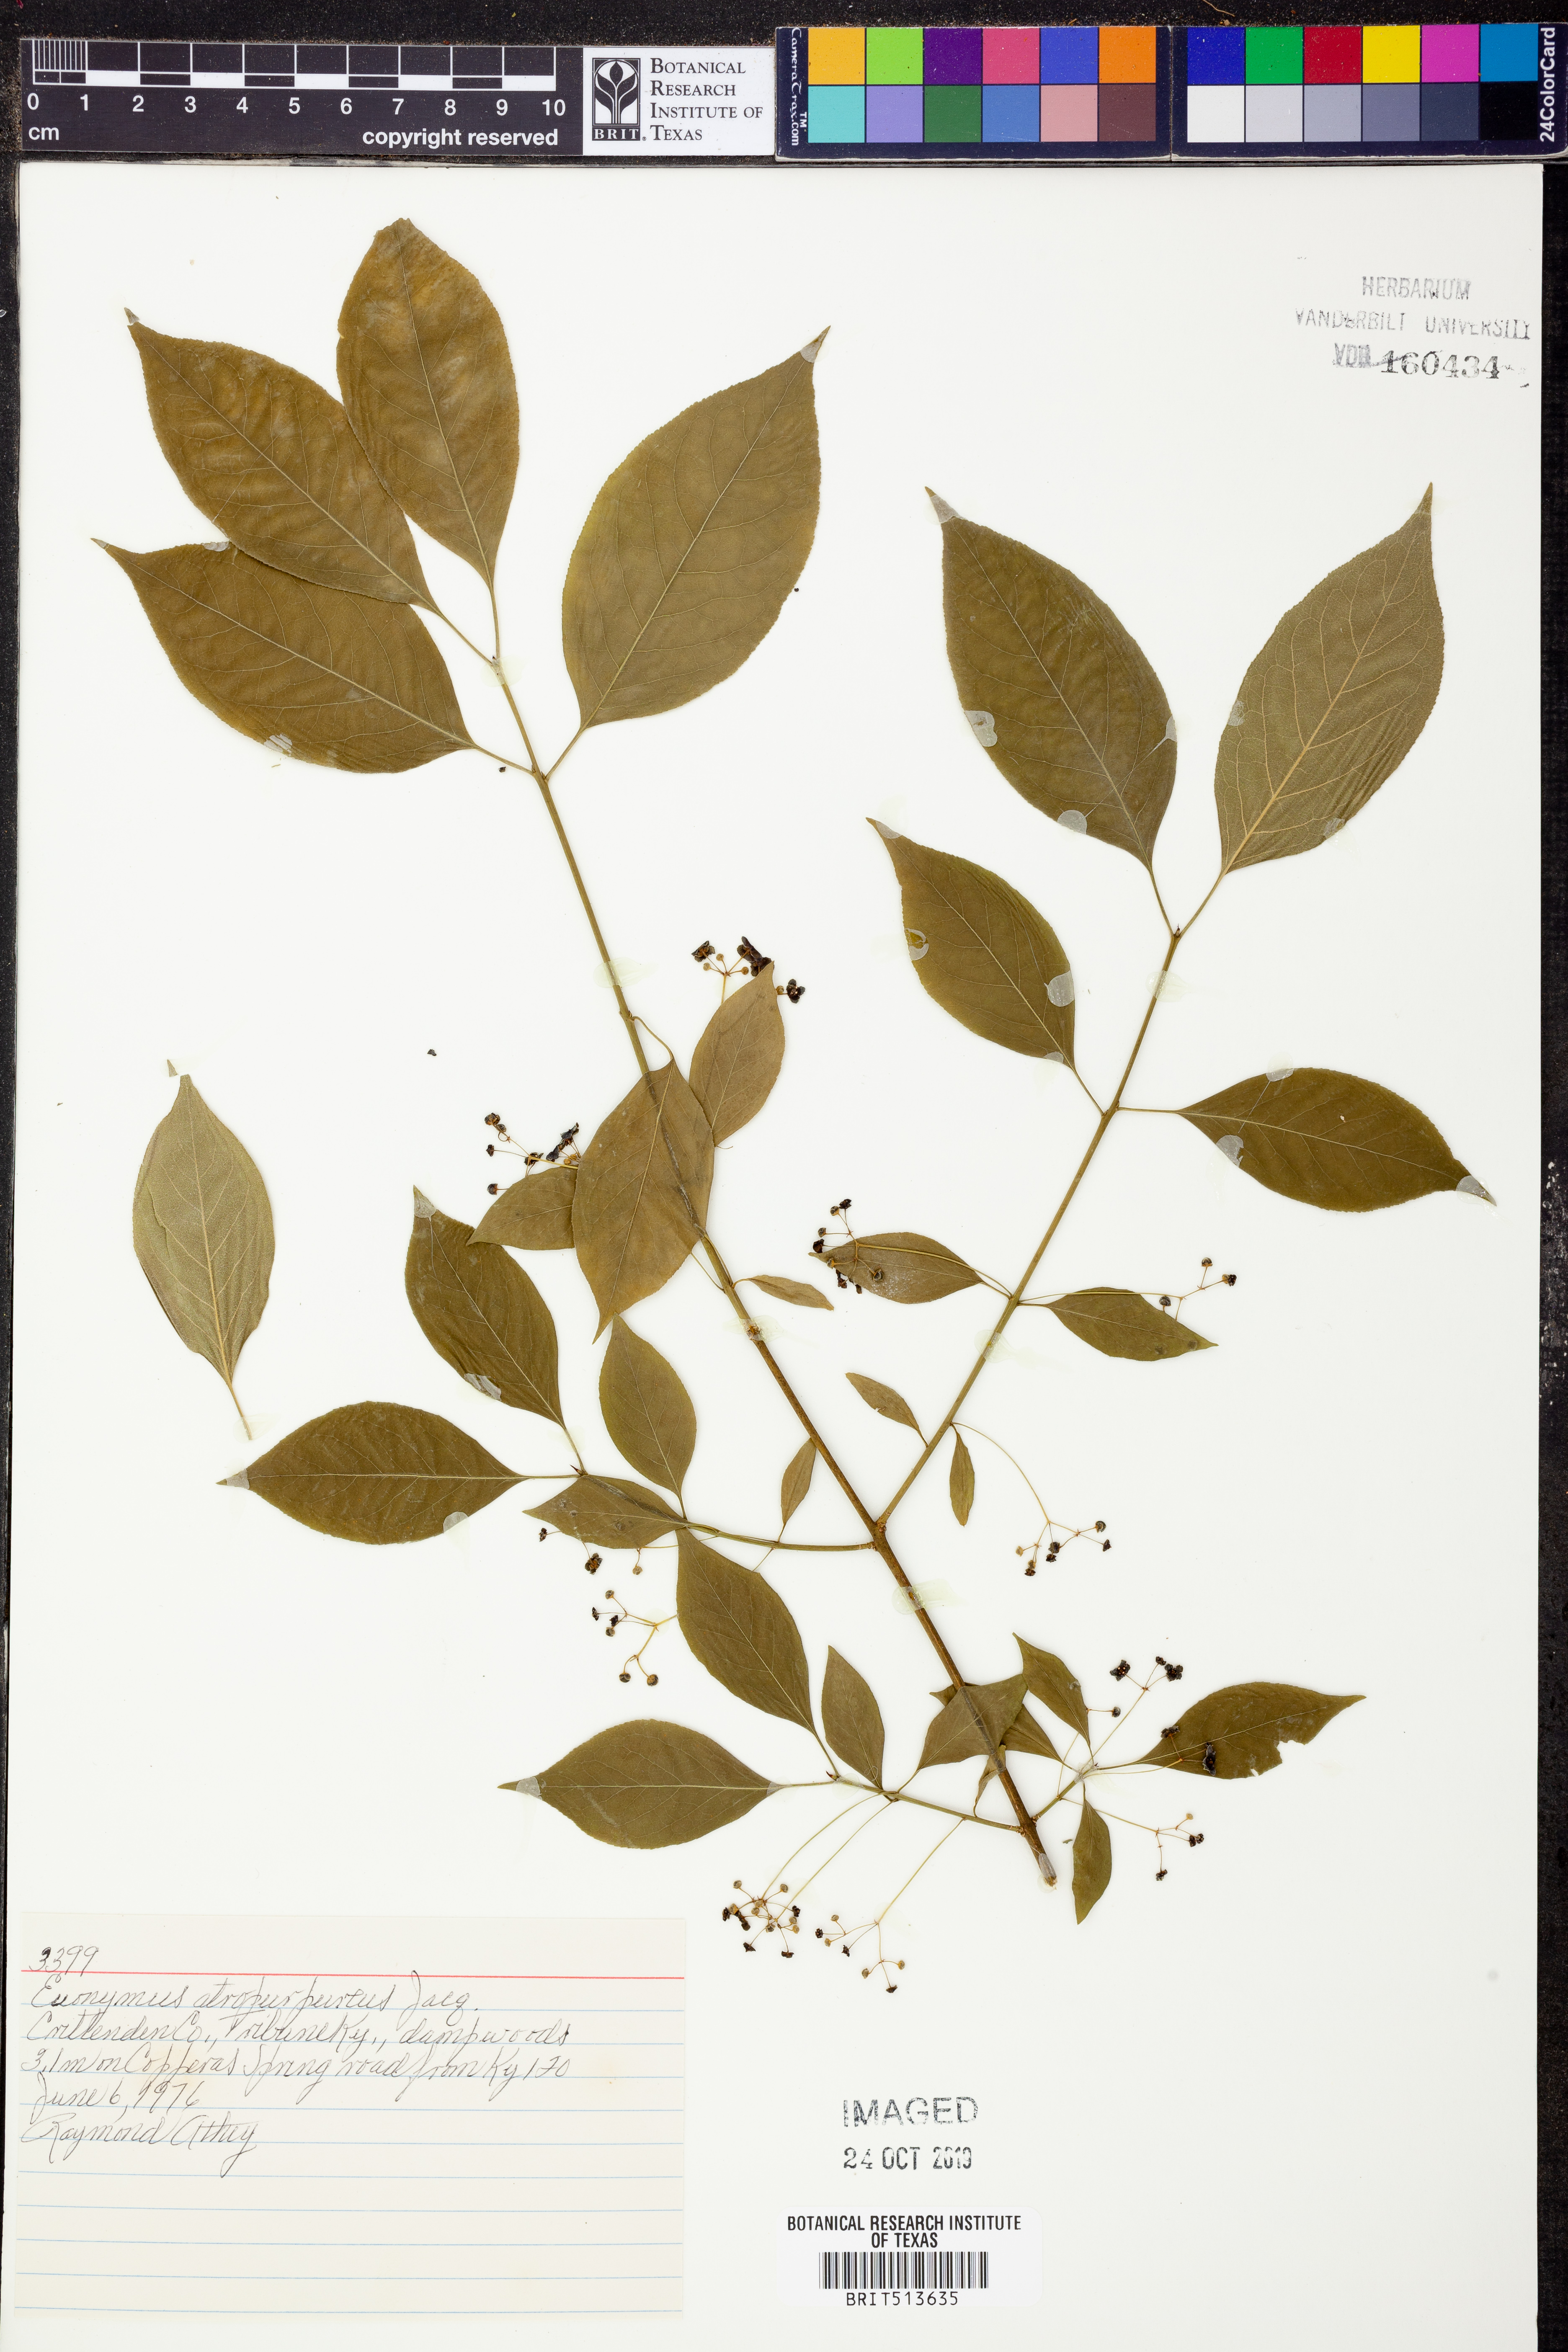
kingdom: Plantae
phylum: Tracheophyta
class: Magnoliopsida
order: Celastrales
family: Celastraceae
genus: Euonymus
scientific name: Euonymus atropurpureus
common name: Eastern wahoo
